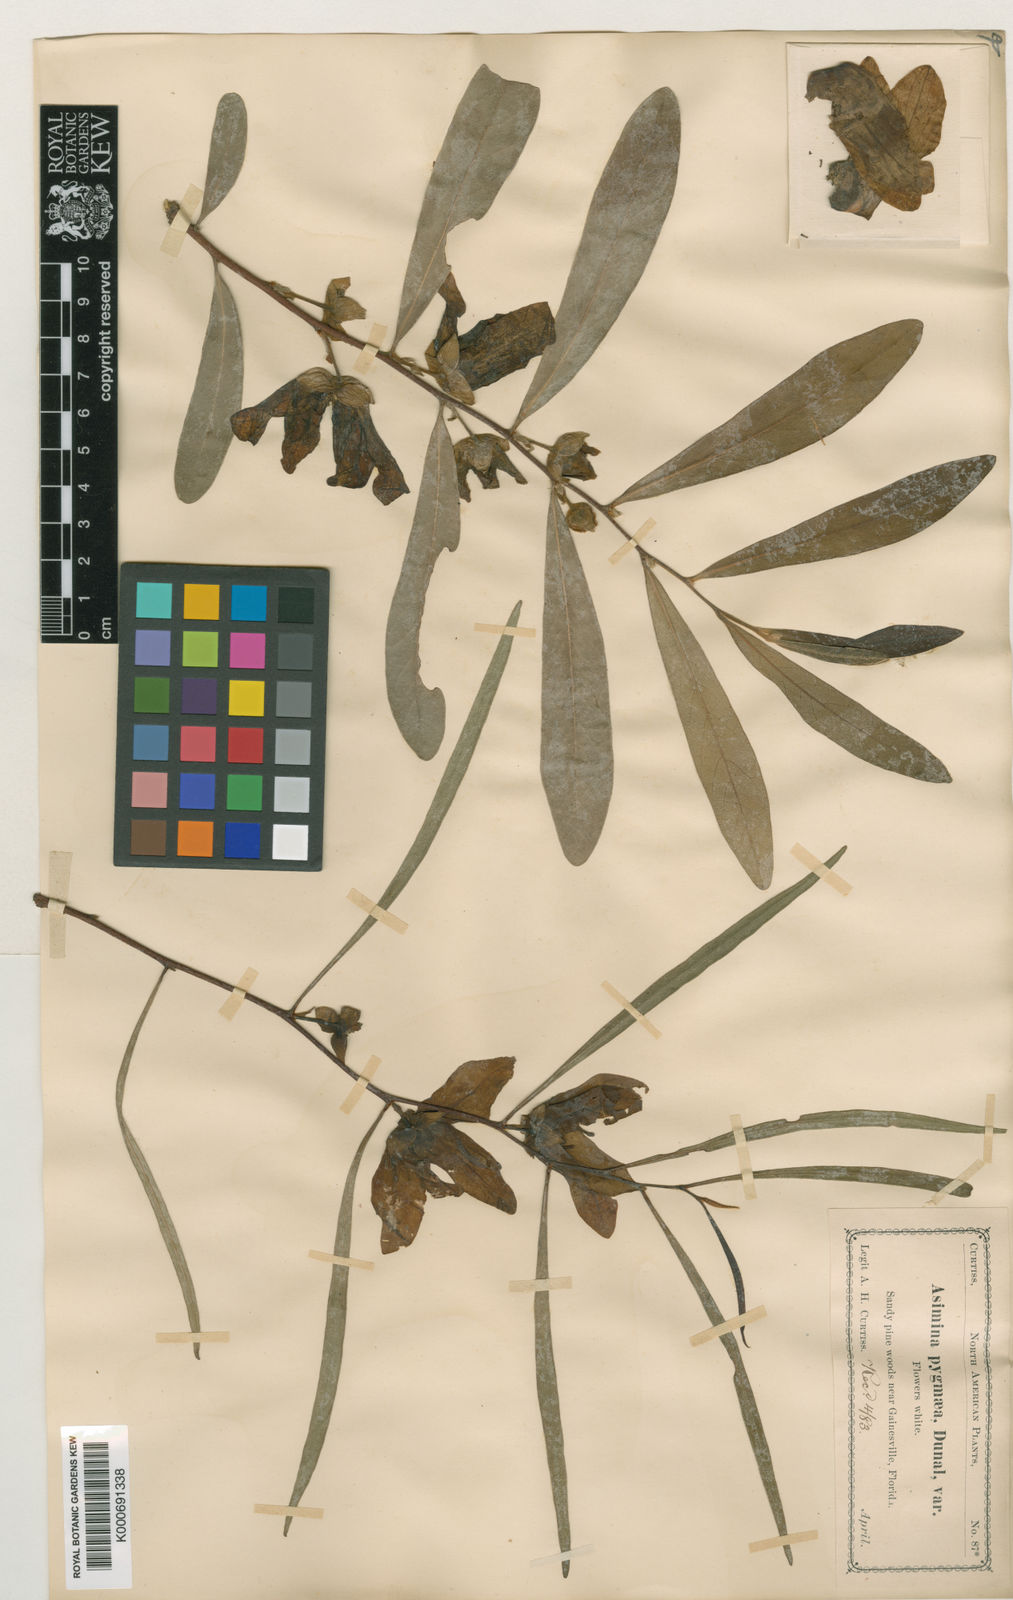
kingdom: Plantae
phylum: Tracheophyta
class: Magnoliopsida
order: Magnoliales
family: Annonaceae
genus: Asimina
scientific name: Asimina longifolia
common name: Polecatbush
